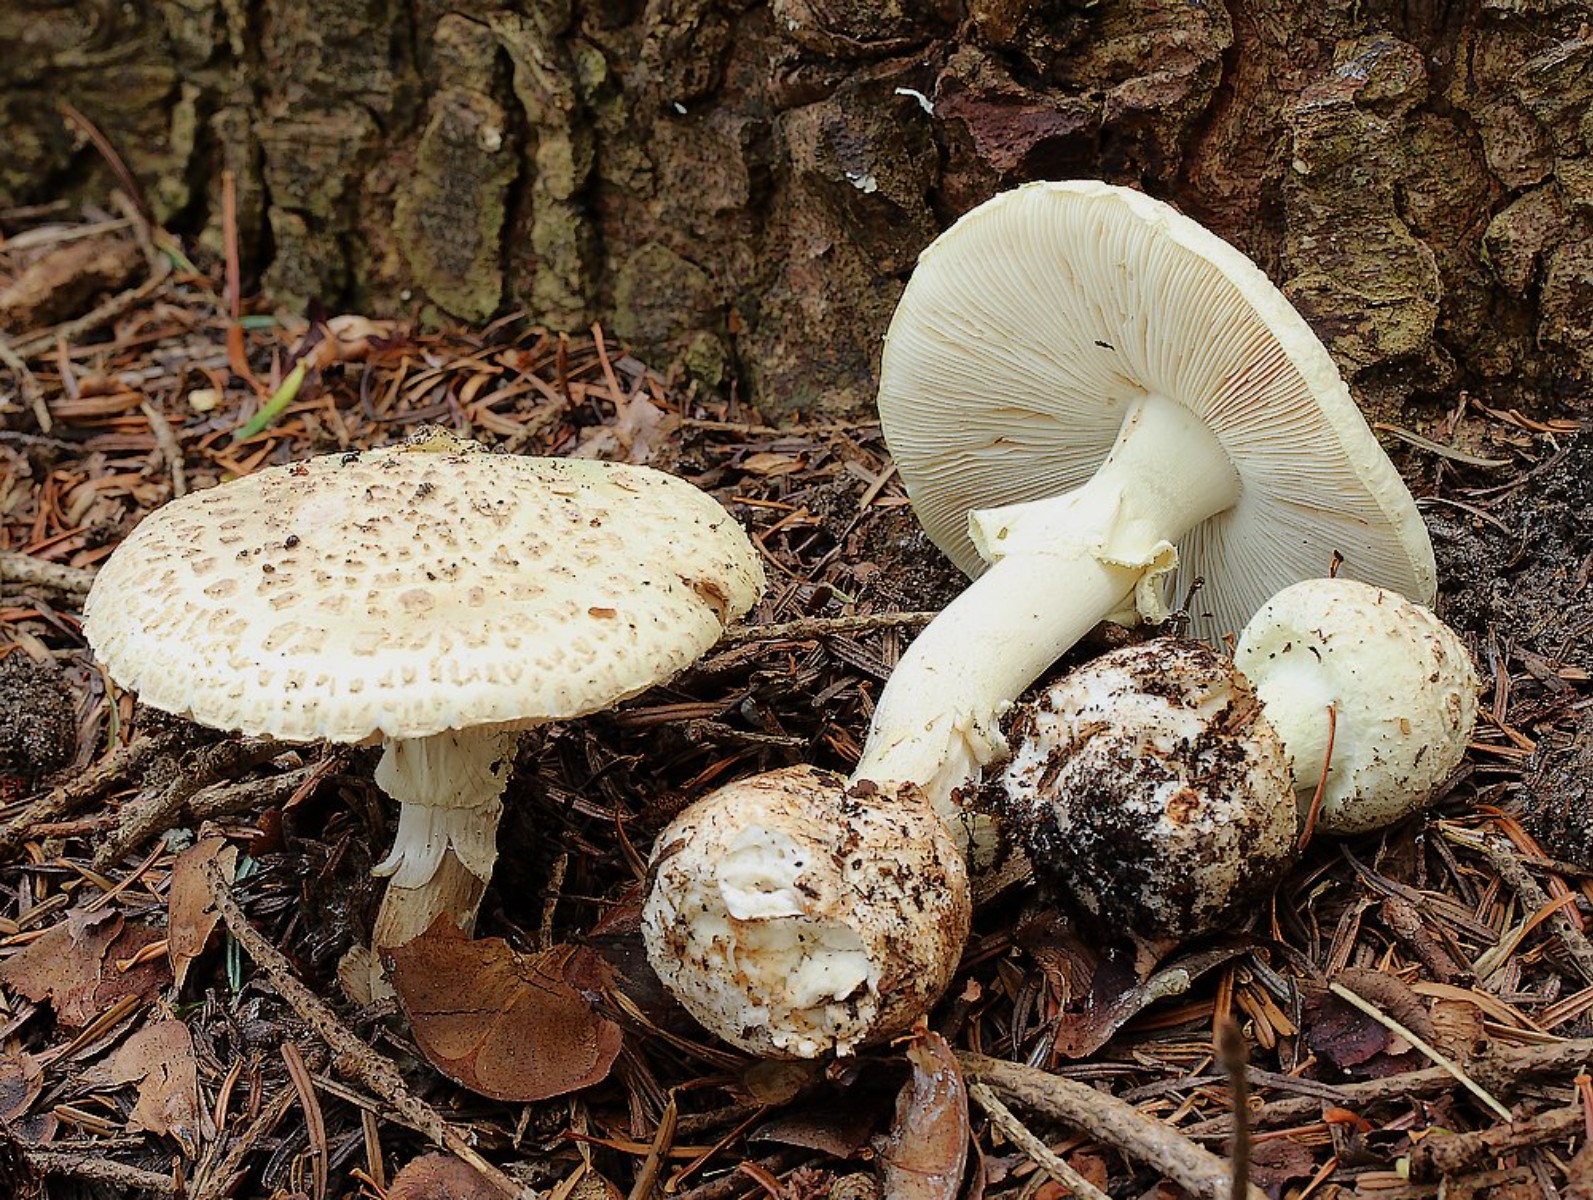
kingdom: Fungi
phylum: Basidiomycota
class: Agaricomycetes
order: Agaricales
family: Amanitaceae
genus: Amanita
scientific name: Amanita citrina
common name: kugleknoldet fluesvamp
